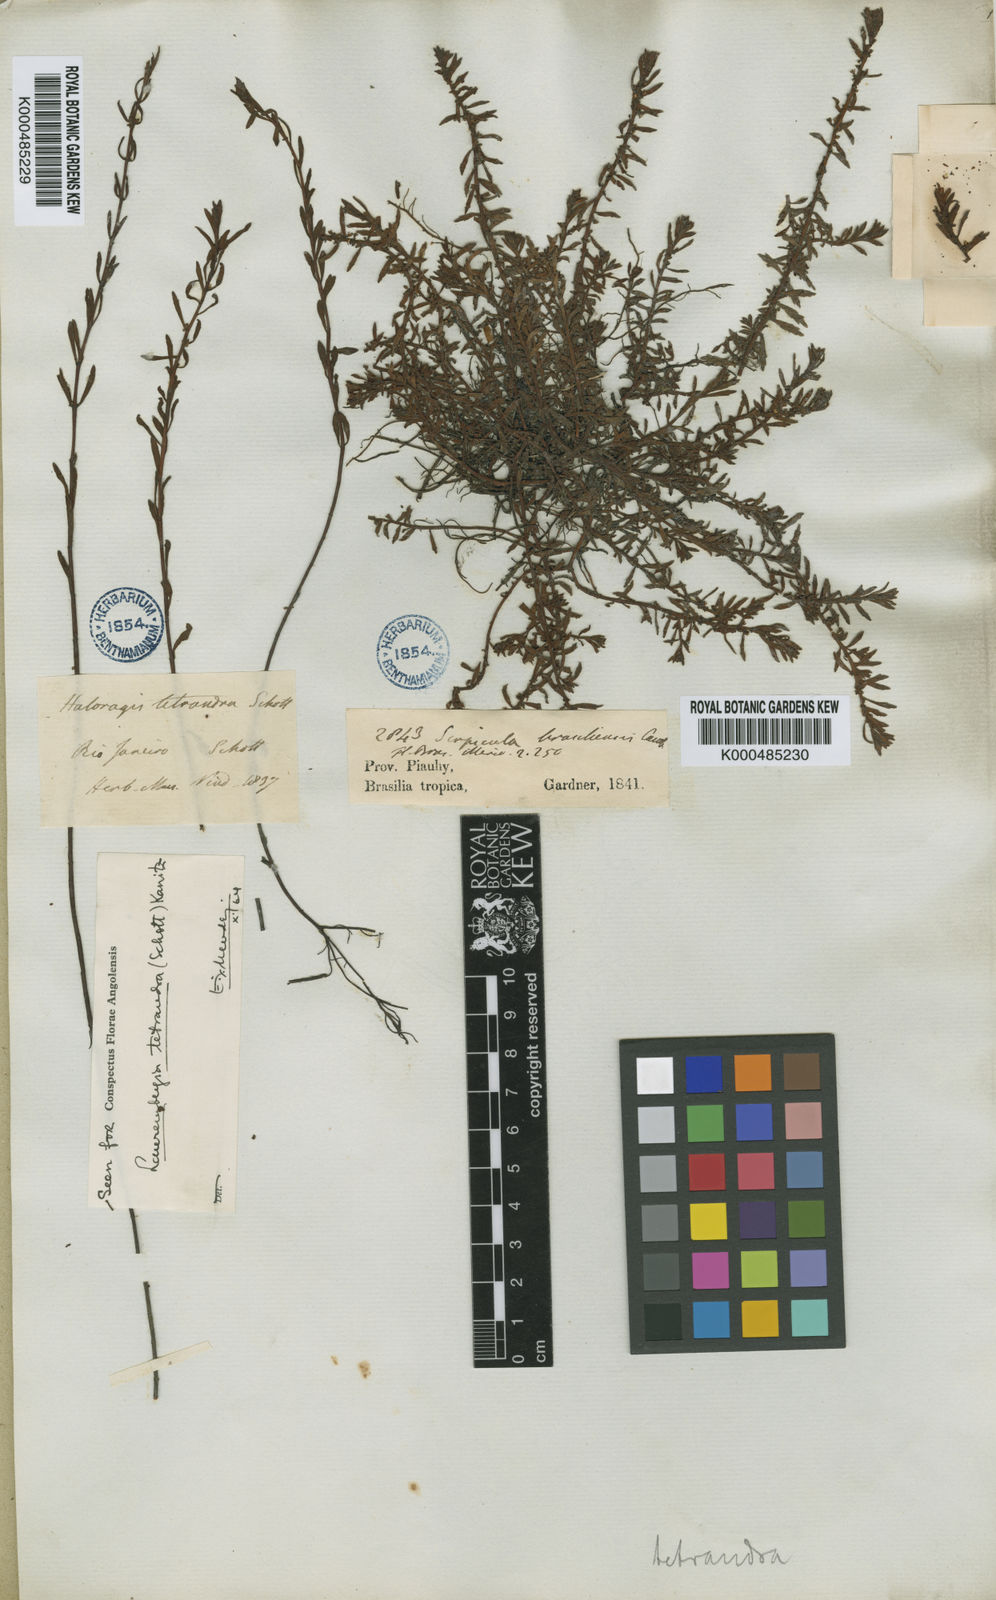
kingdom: Plantae
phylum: Tracheophyta
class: Magnoliopsida
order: Saxifragales
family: Haloragaceae
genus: Laurembergia
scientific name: Laurembergia tetrandra
